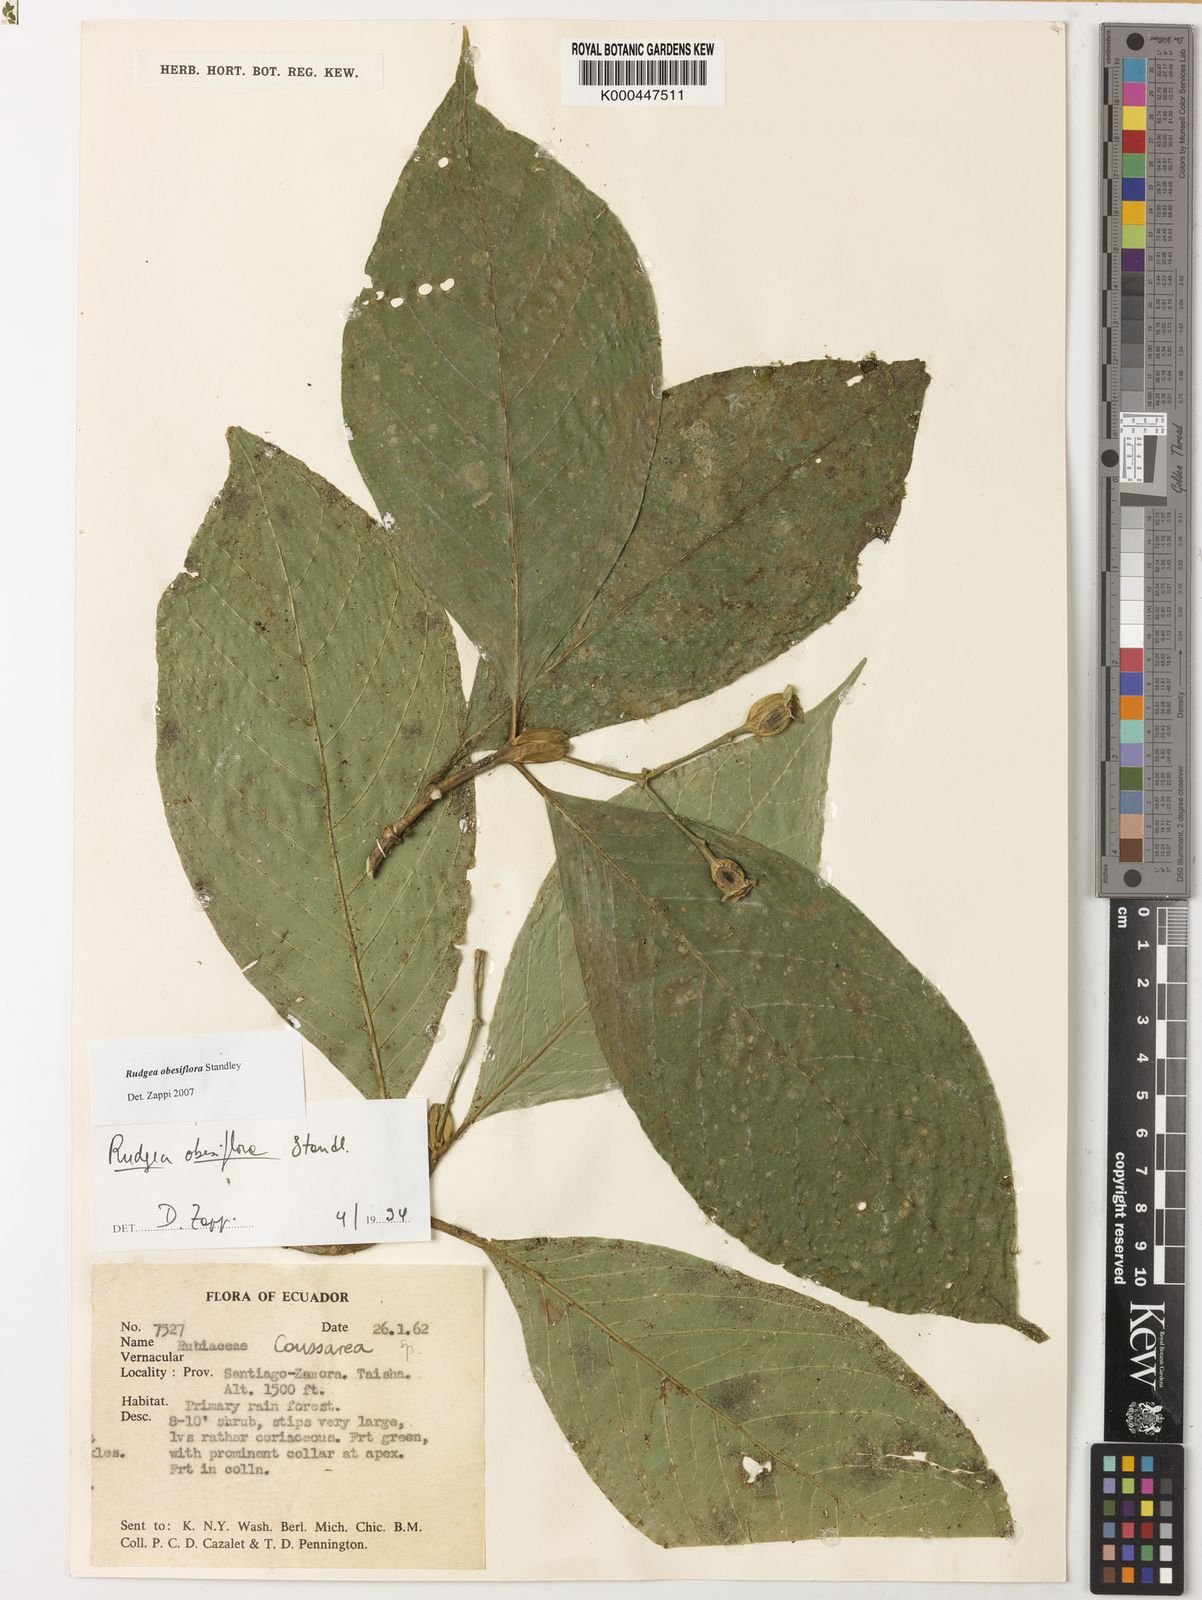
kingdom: Plantae
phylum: Tracheophyta
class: Magnoliopsida
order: Gentianales
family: Rubiaceae
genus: Rudgea
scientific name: Rudgea obesiflora
